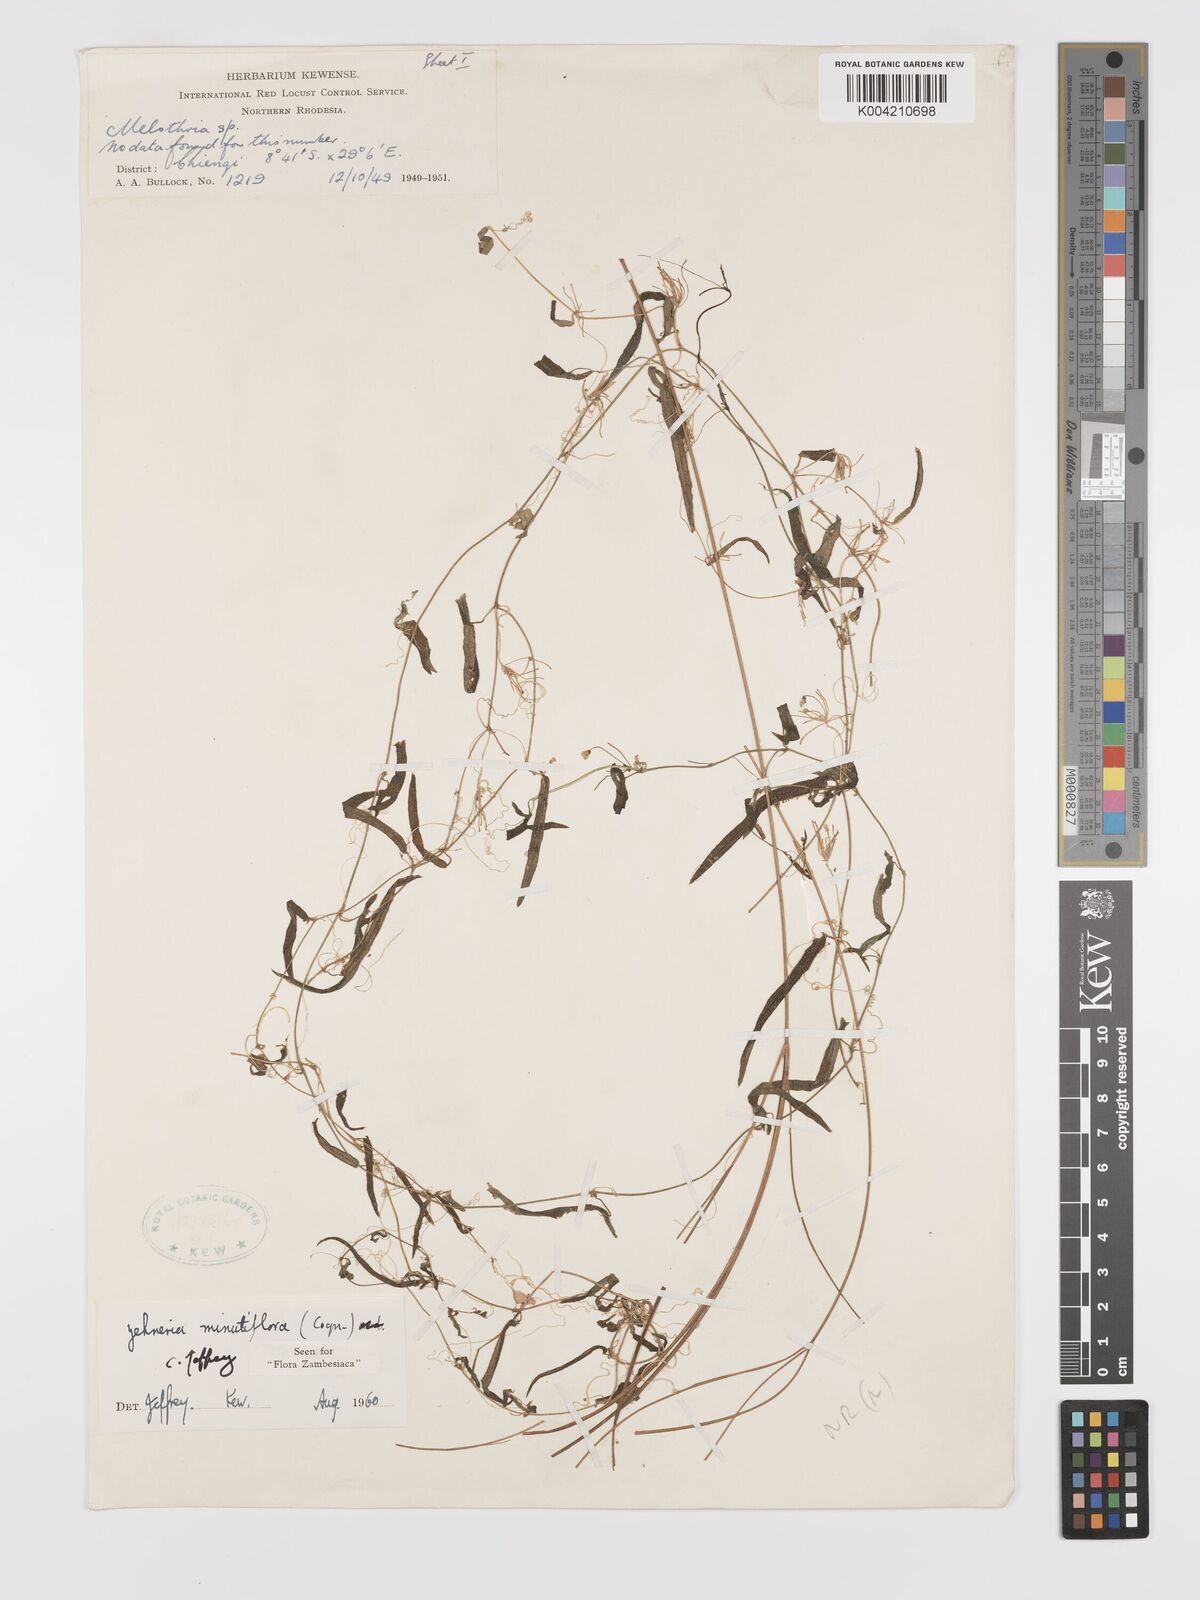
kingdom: Plantae
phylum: Tracheophyta
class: Magnoliopsida
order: Cucurbitales
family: Cucurbitaceae
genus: Zehneria
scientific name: Zehneria minutiflora
